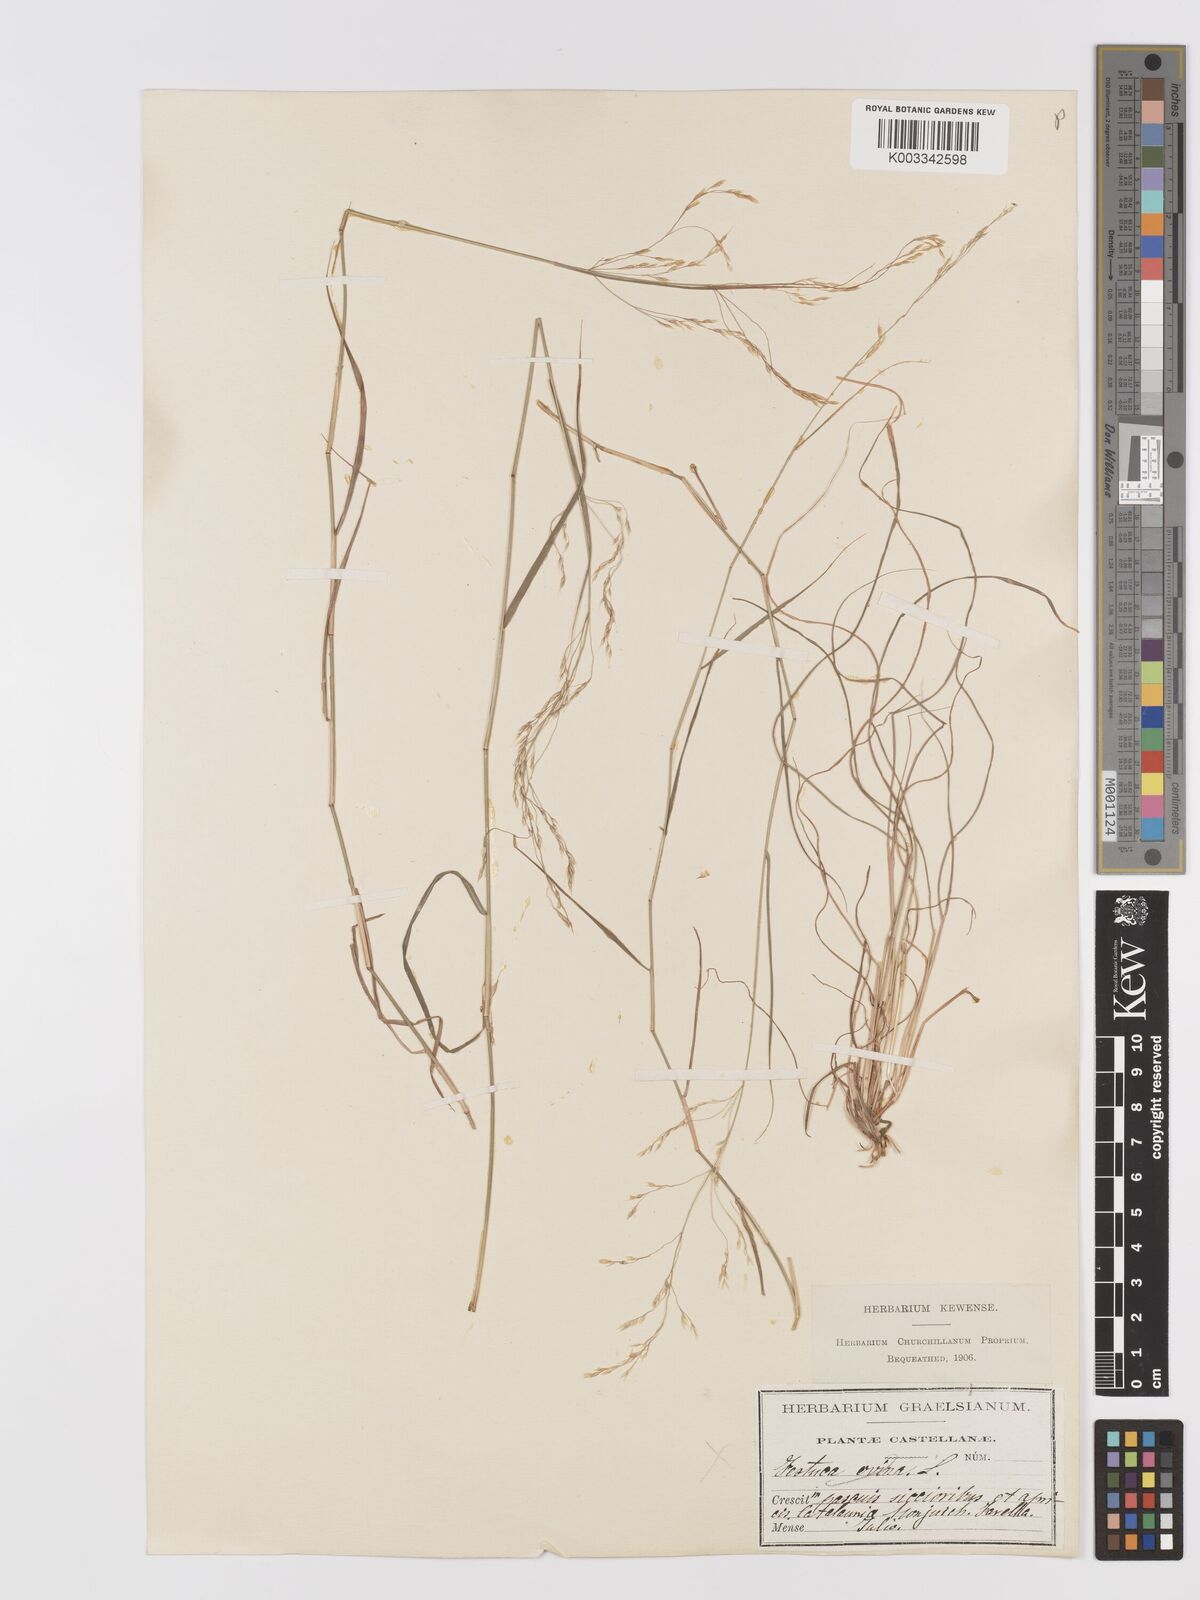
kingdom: Plantae
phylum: Tracheophyta
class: Liliopsida
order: Poales
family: Poaceae
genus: Agrostis
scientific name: Agrostis
